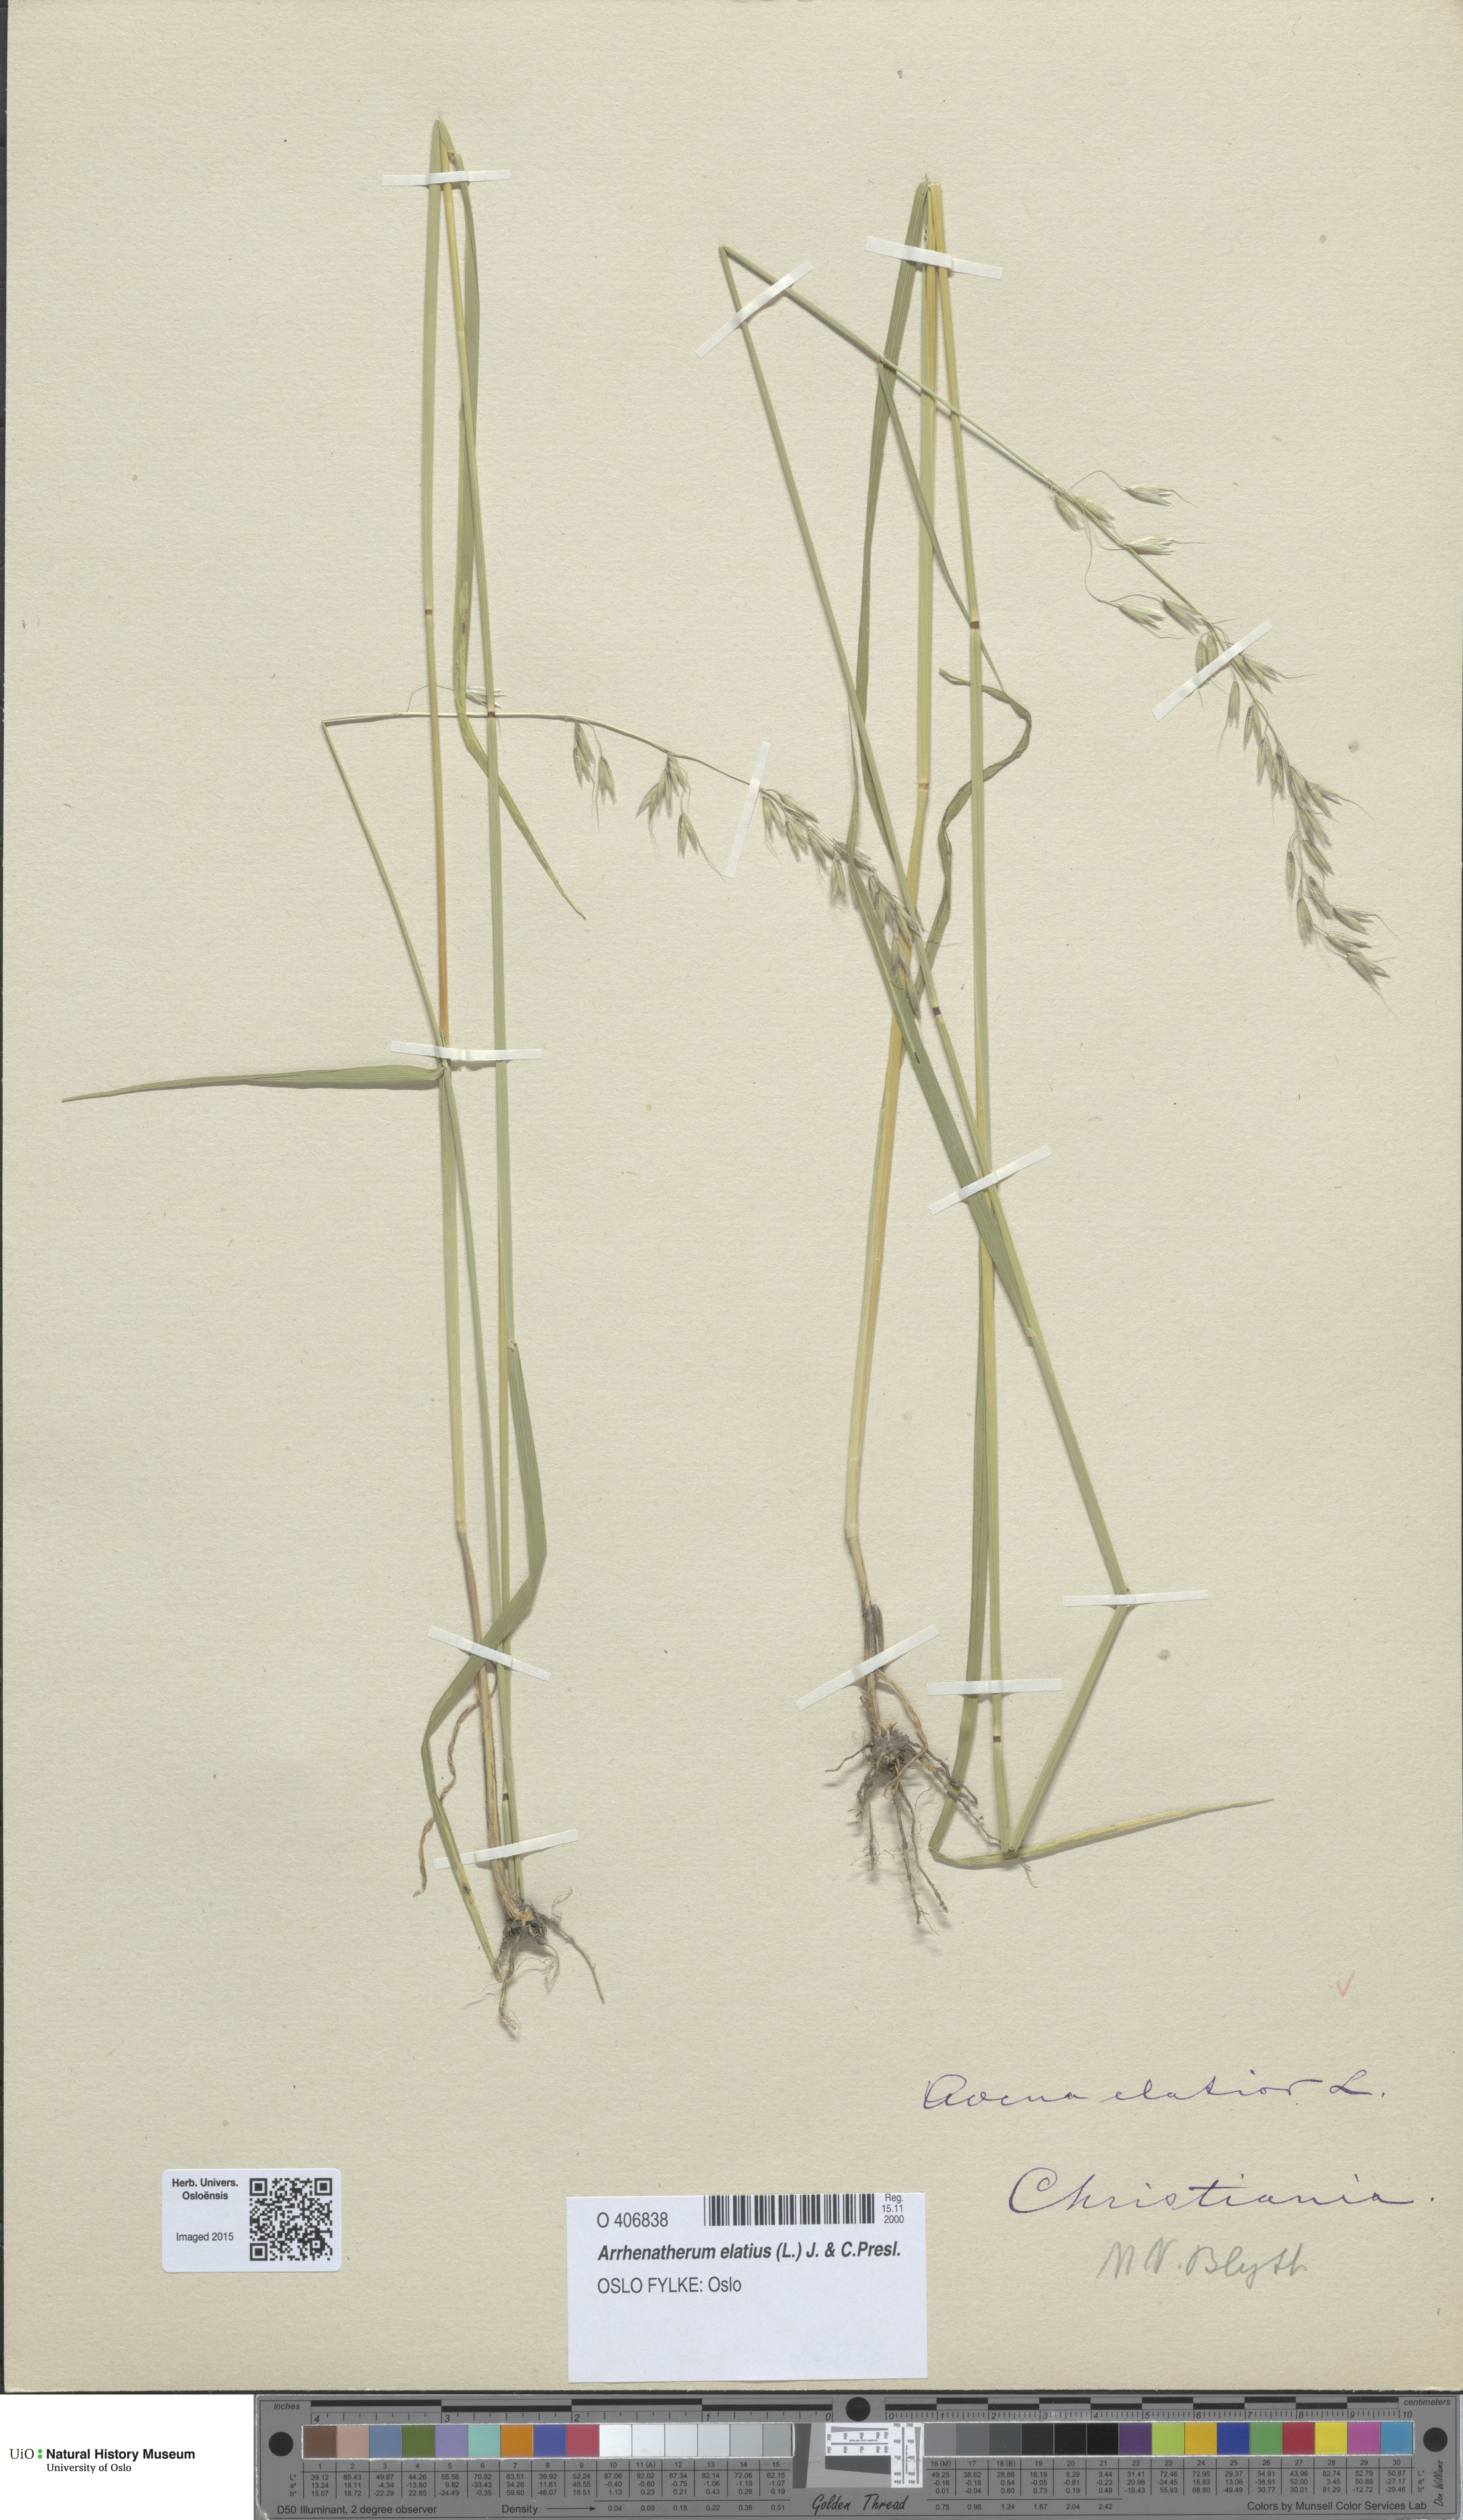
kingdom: Plantae
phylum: Tracheophyta
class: Liliopsida
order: Poales
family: Poaceae
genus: Arrhenatherum
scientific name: Arrhenatherum elatius
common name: Tall oatgrass
